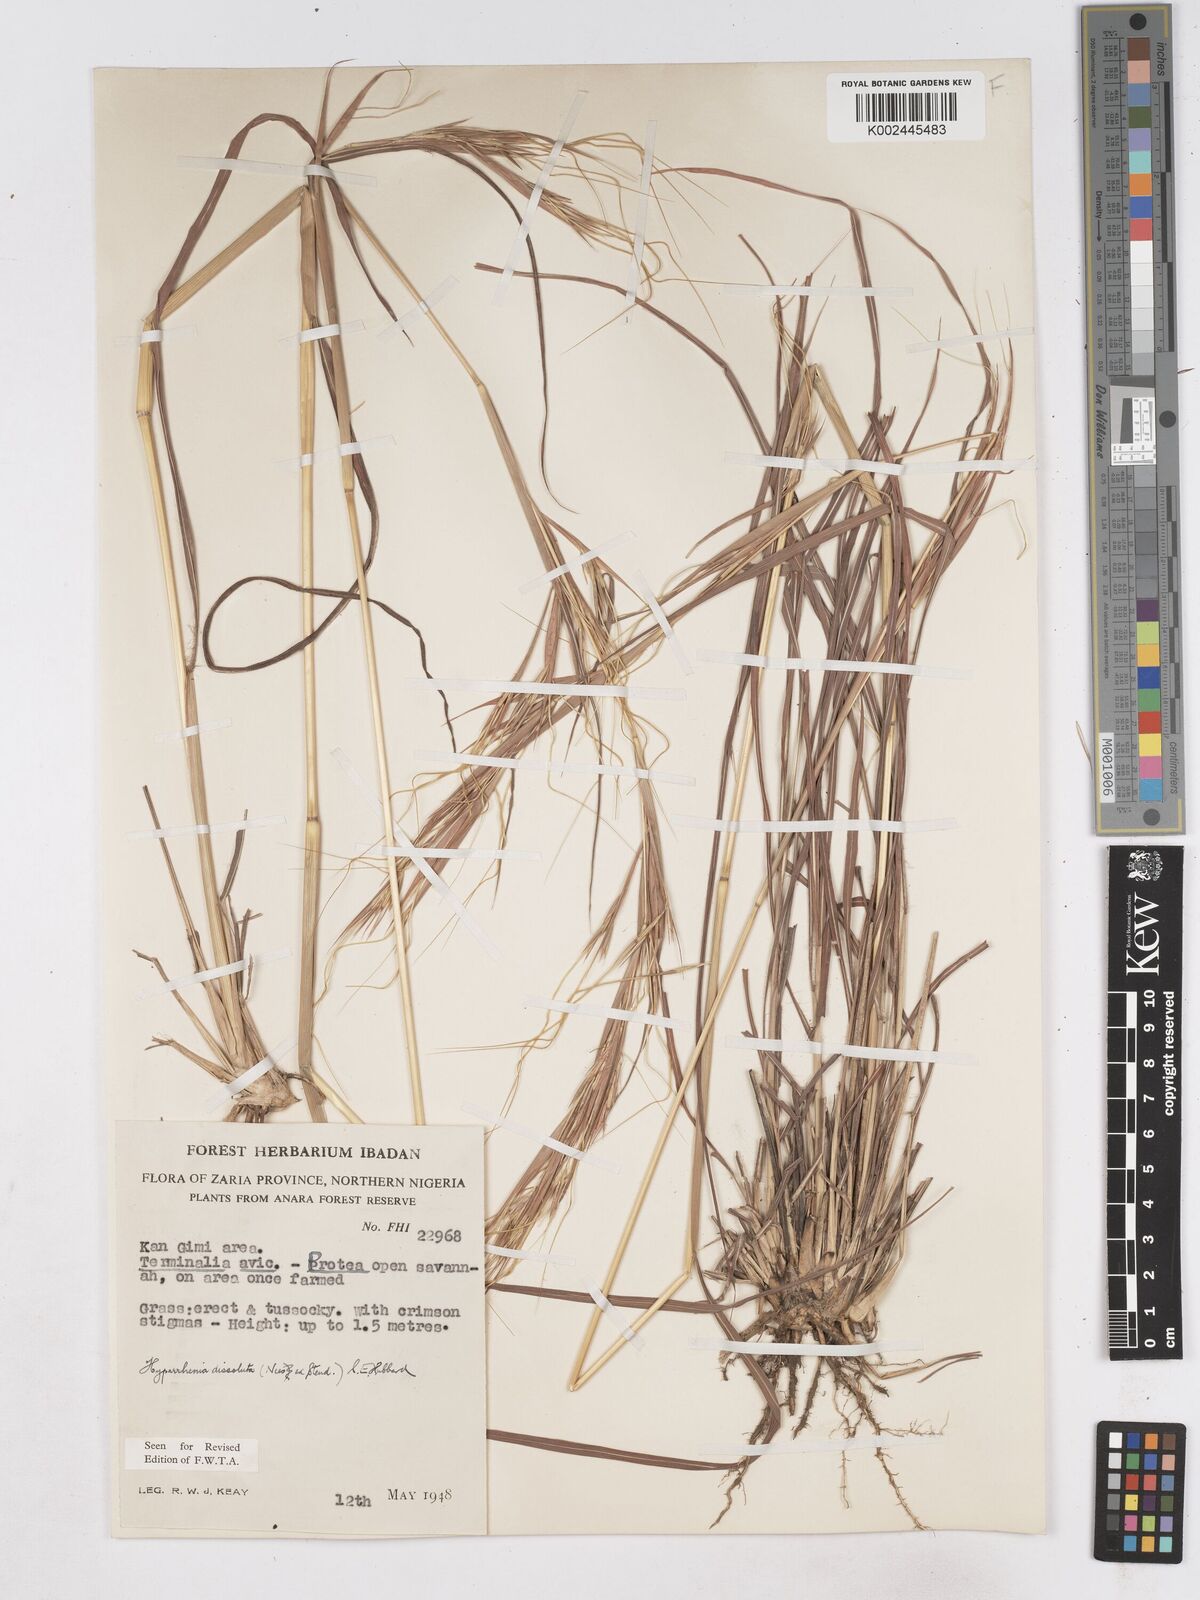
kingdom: Plantae
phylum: Tracheophyta
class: Liliopsida
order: Poales
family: Poaceae
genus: Hyperthelia
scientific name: Hyperthelia dissoluta
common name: Yellow thatching grass
